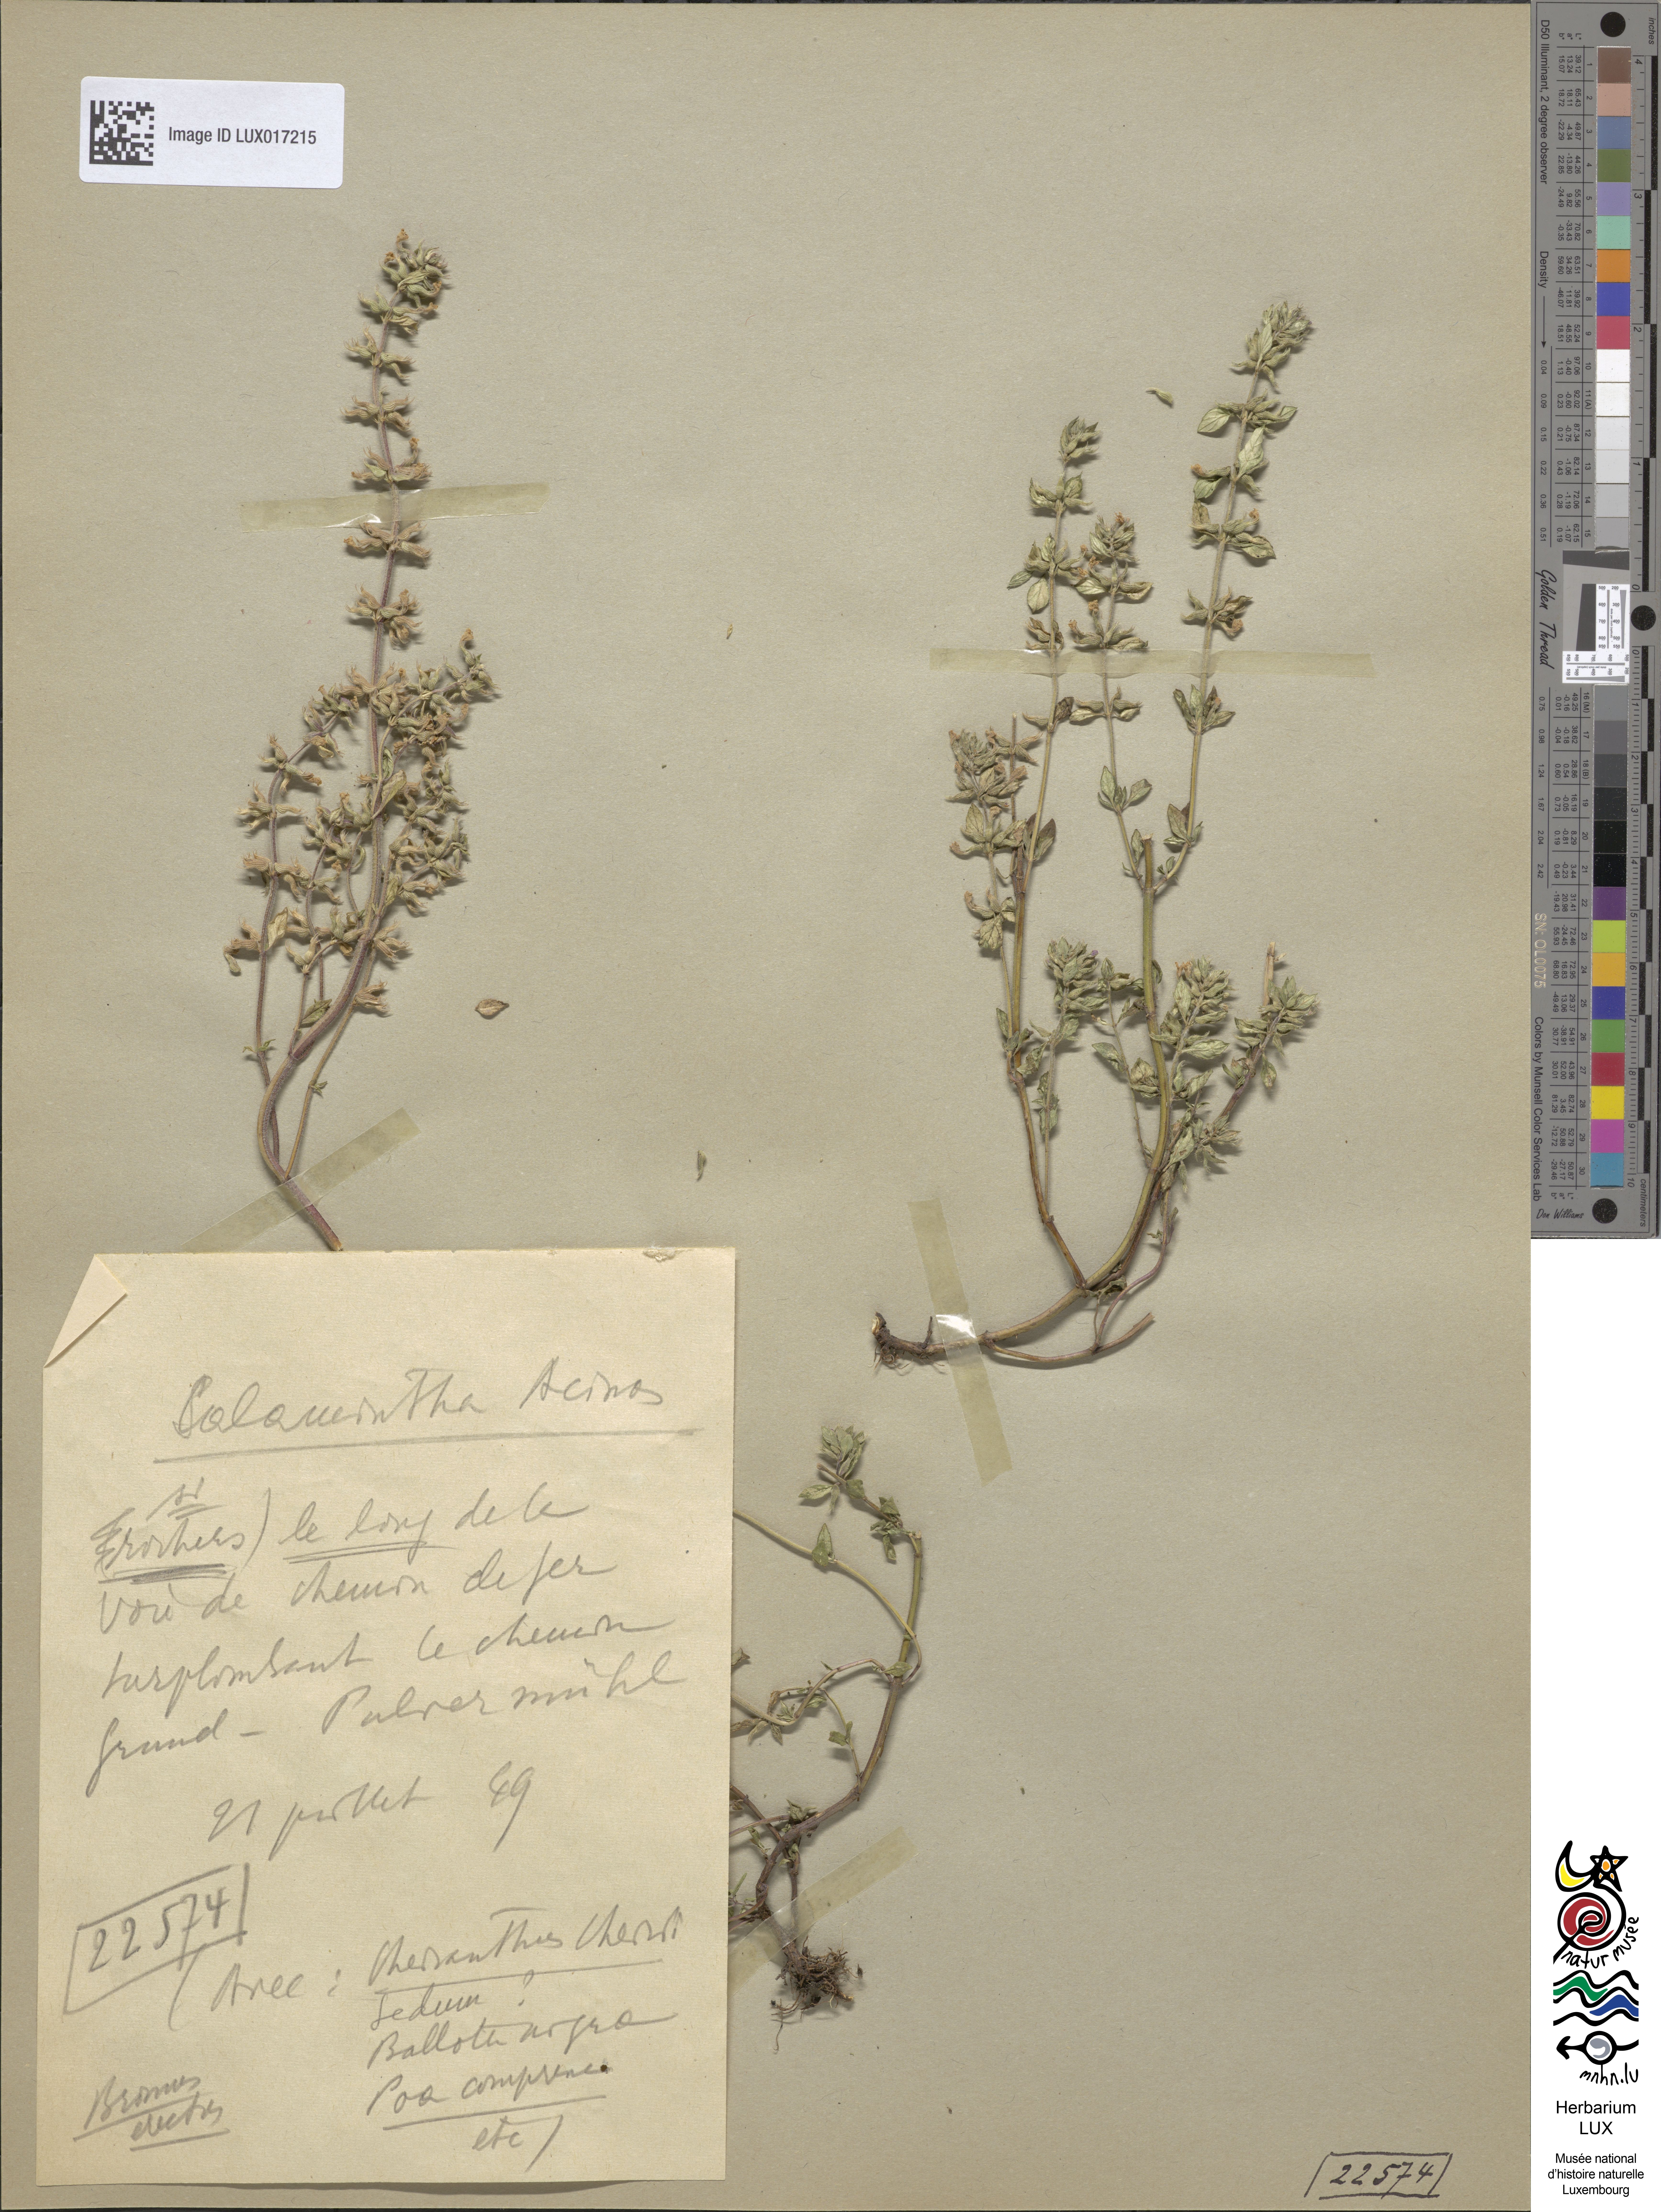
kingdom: Plantae
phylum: Tracheophyta
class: Magnoliopsida
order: Lamiales
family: Lamiaceae
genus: Clinopodium
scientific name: Clinopodium acinos
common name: Basil thyme
